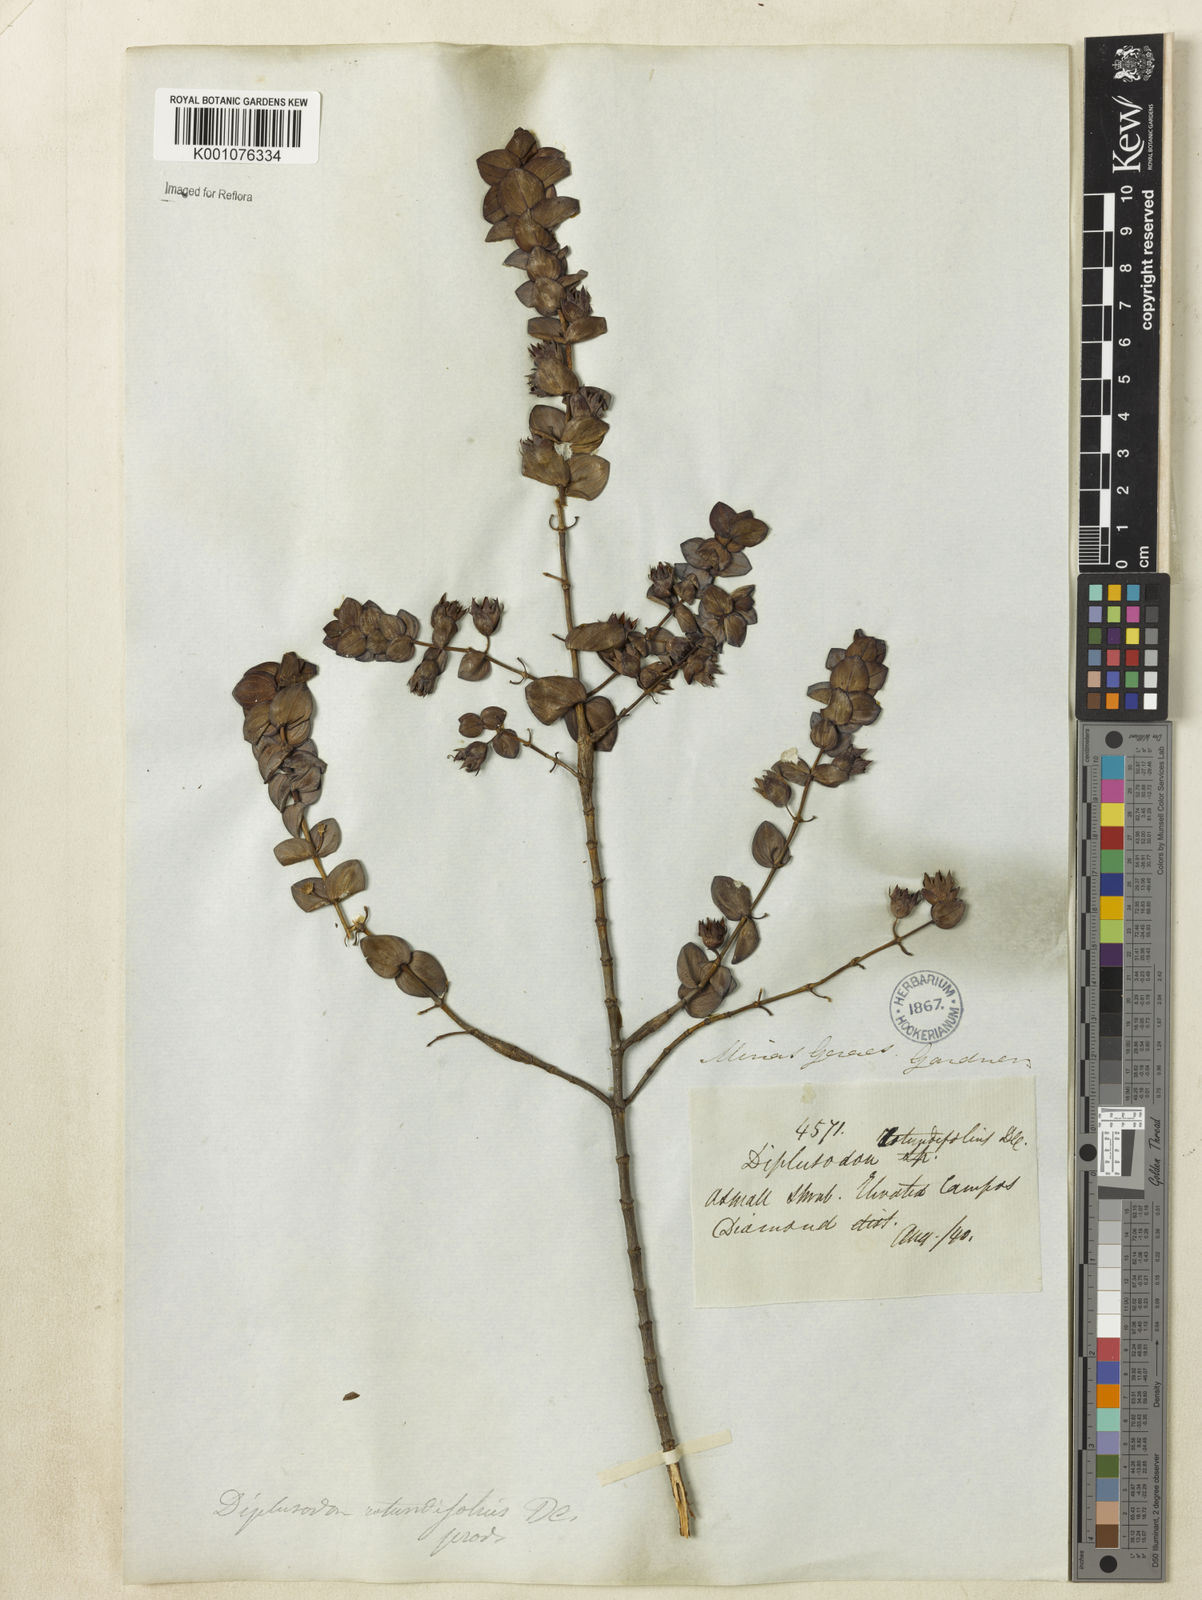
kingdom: Plantae
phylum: Tracheophyta
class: Magnoliopsida
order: Myrtales
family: Lythraceae
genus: Diplusodon
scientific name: Diplusodon rotundifolius
